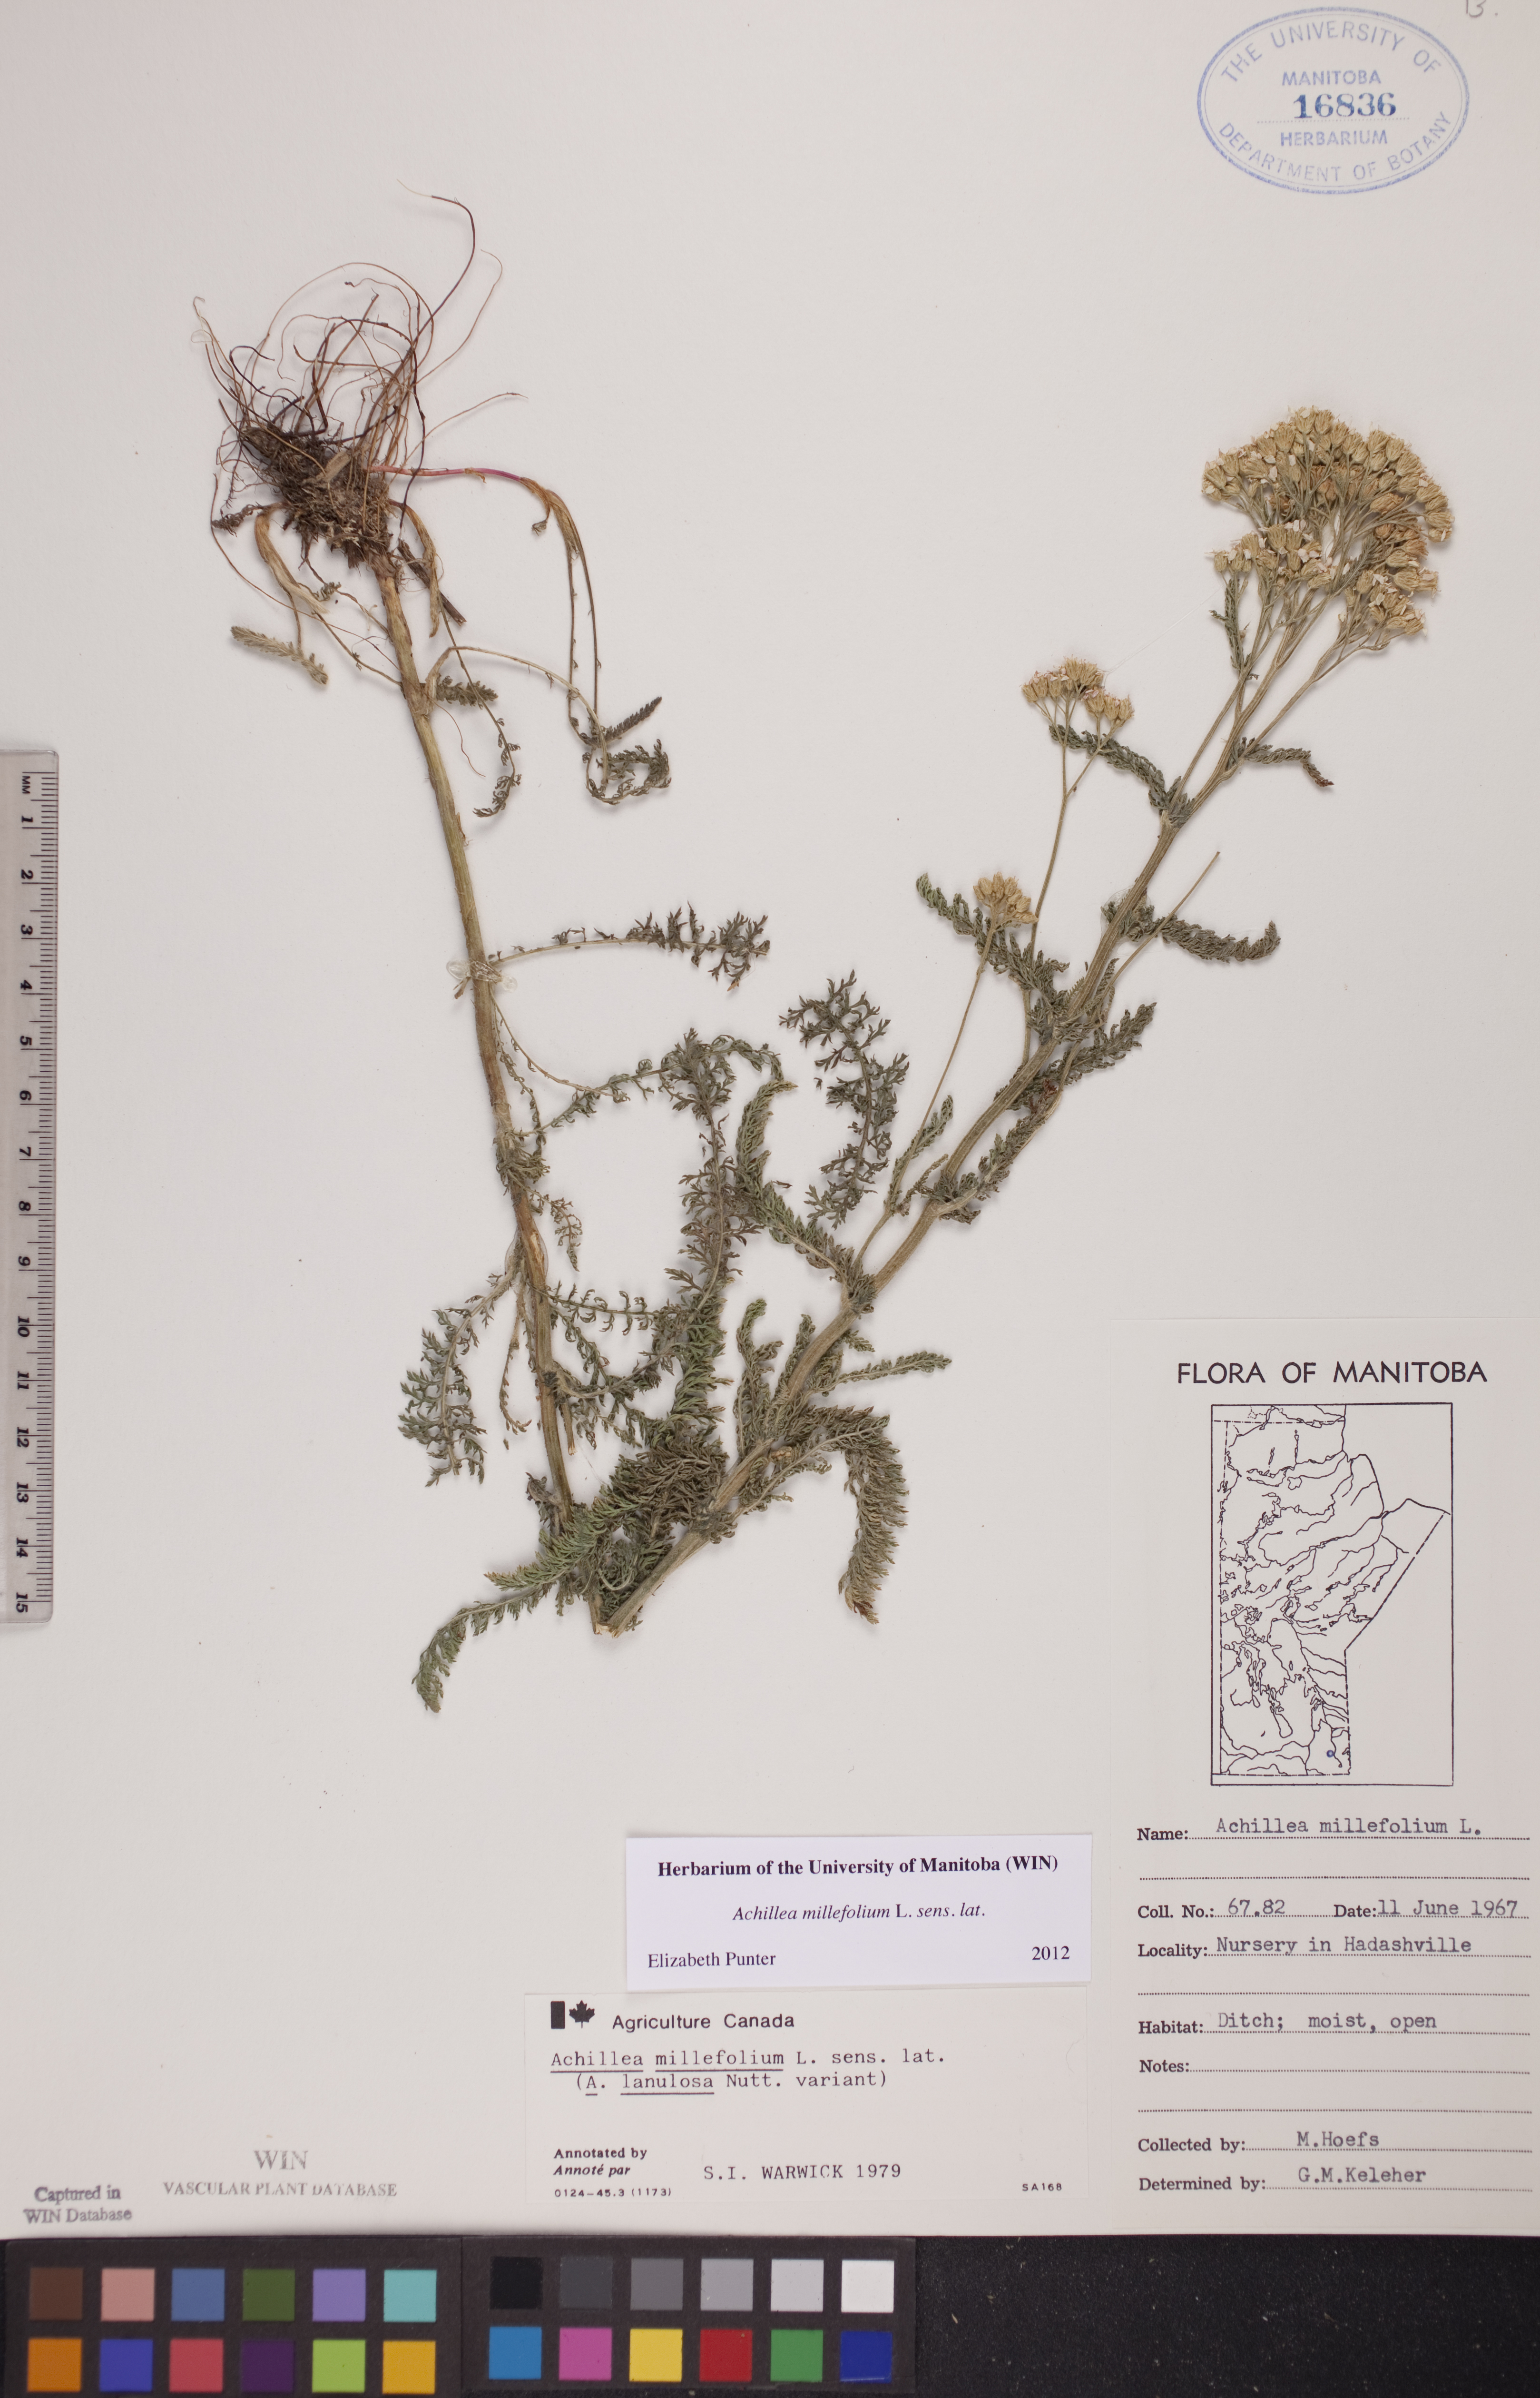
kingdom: Plantae
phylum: Tracheophyta
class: Magnoliopsida
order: Asterales
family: Asteraceae
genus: Achillea
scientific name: Achillea millefolium
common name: Yarrow
